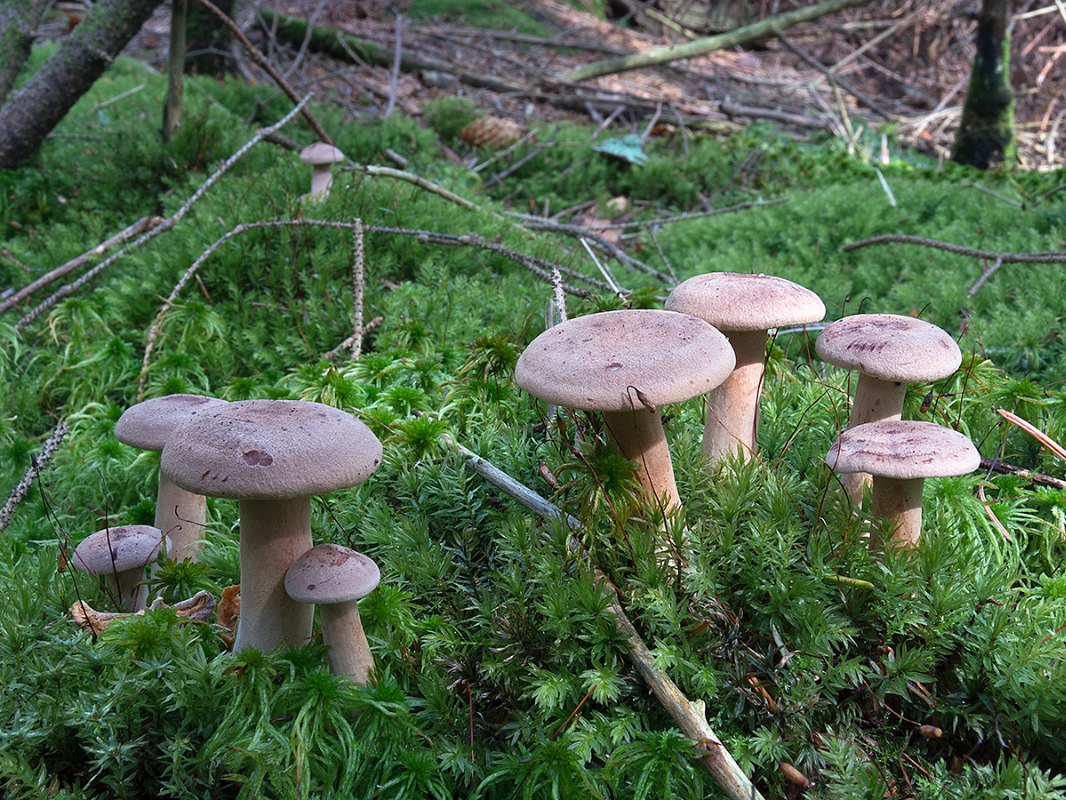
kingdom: Fungi
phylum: Basidiomycota
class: Agaricomycetes
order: Russulales
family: Russulaceae
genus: Lactarius
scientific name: Lactarius helvus
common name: mose-mælkehat
